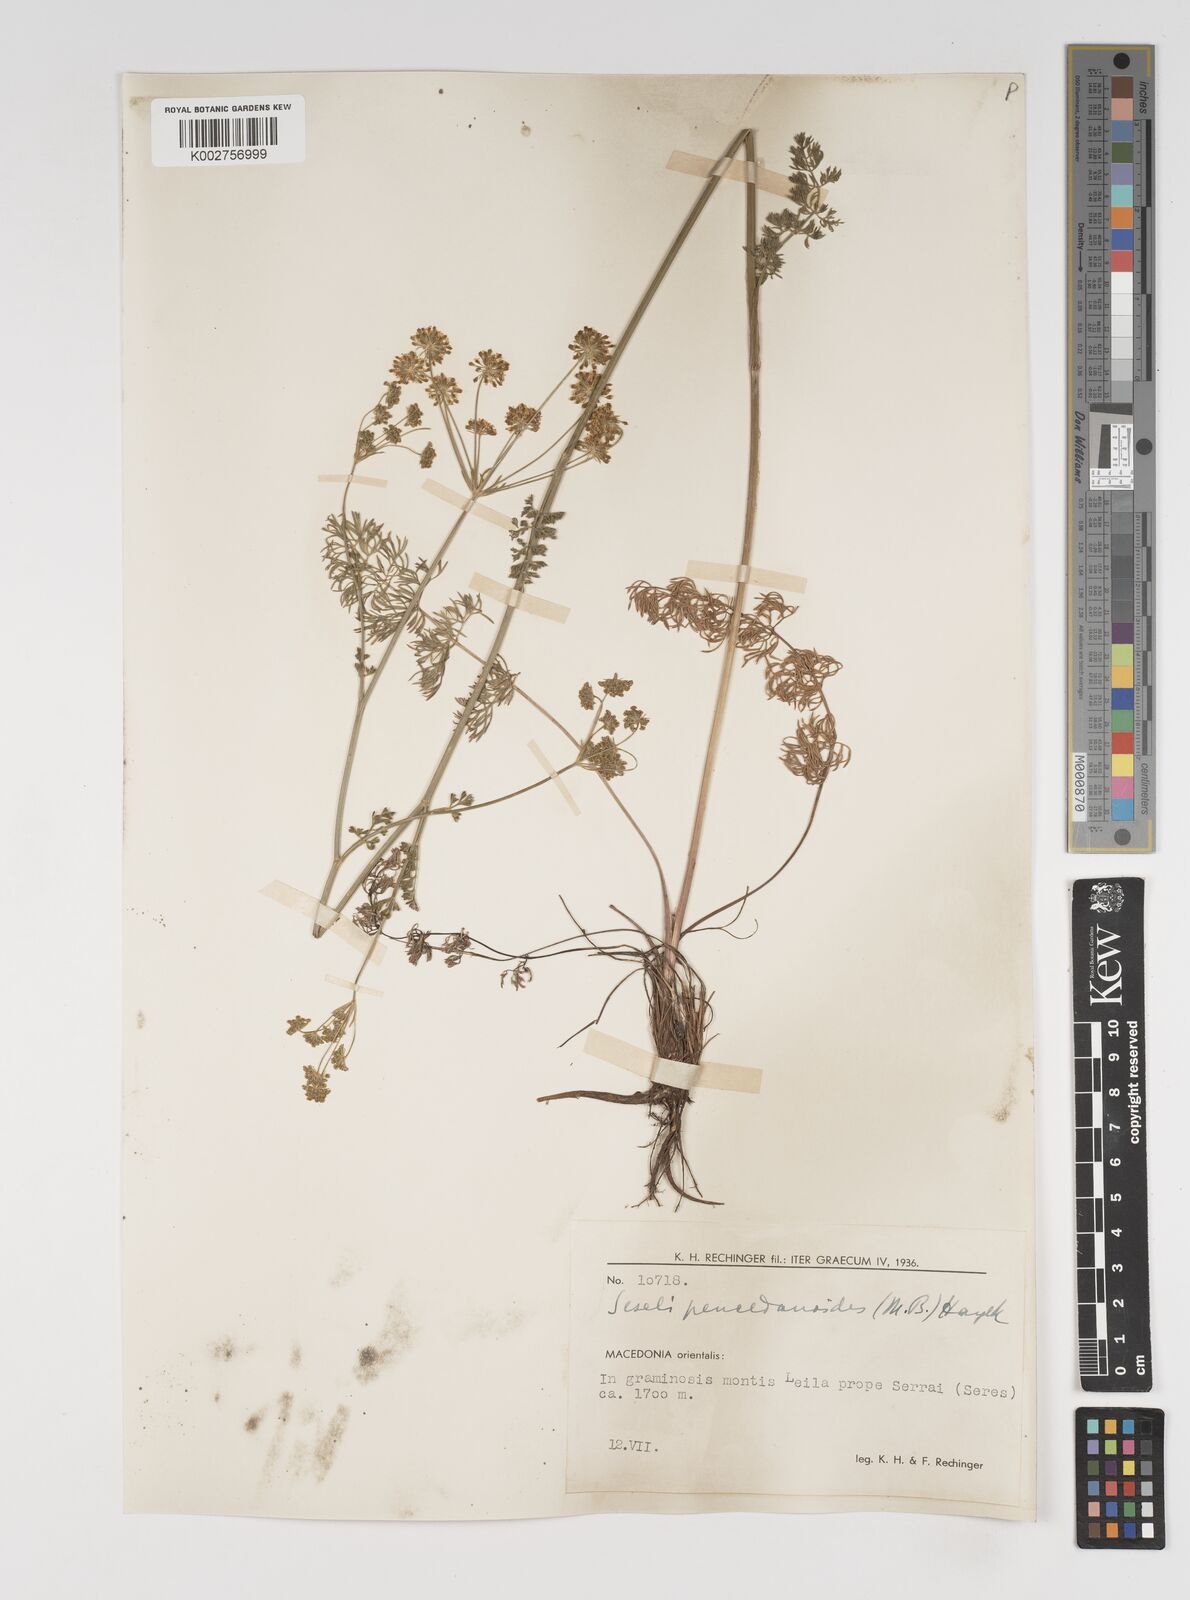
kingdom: Plantae
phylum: Tracheophyta
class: Magnoliopsida
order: Apiales
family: Apiaceae
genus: Gasparinia
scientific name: Gasparinia peucedanoides
